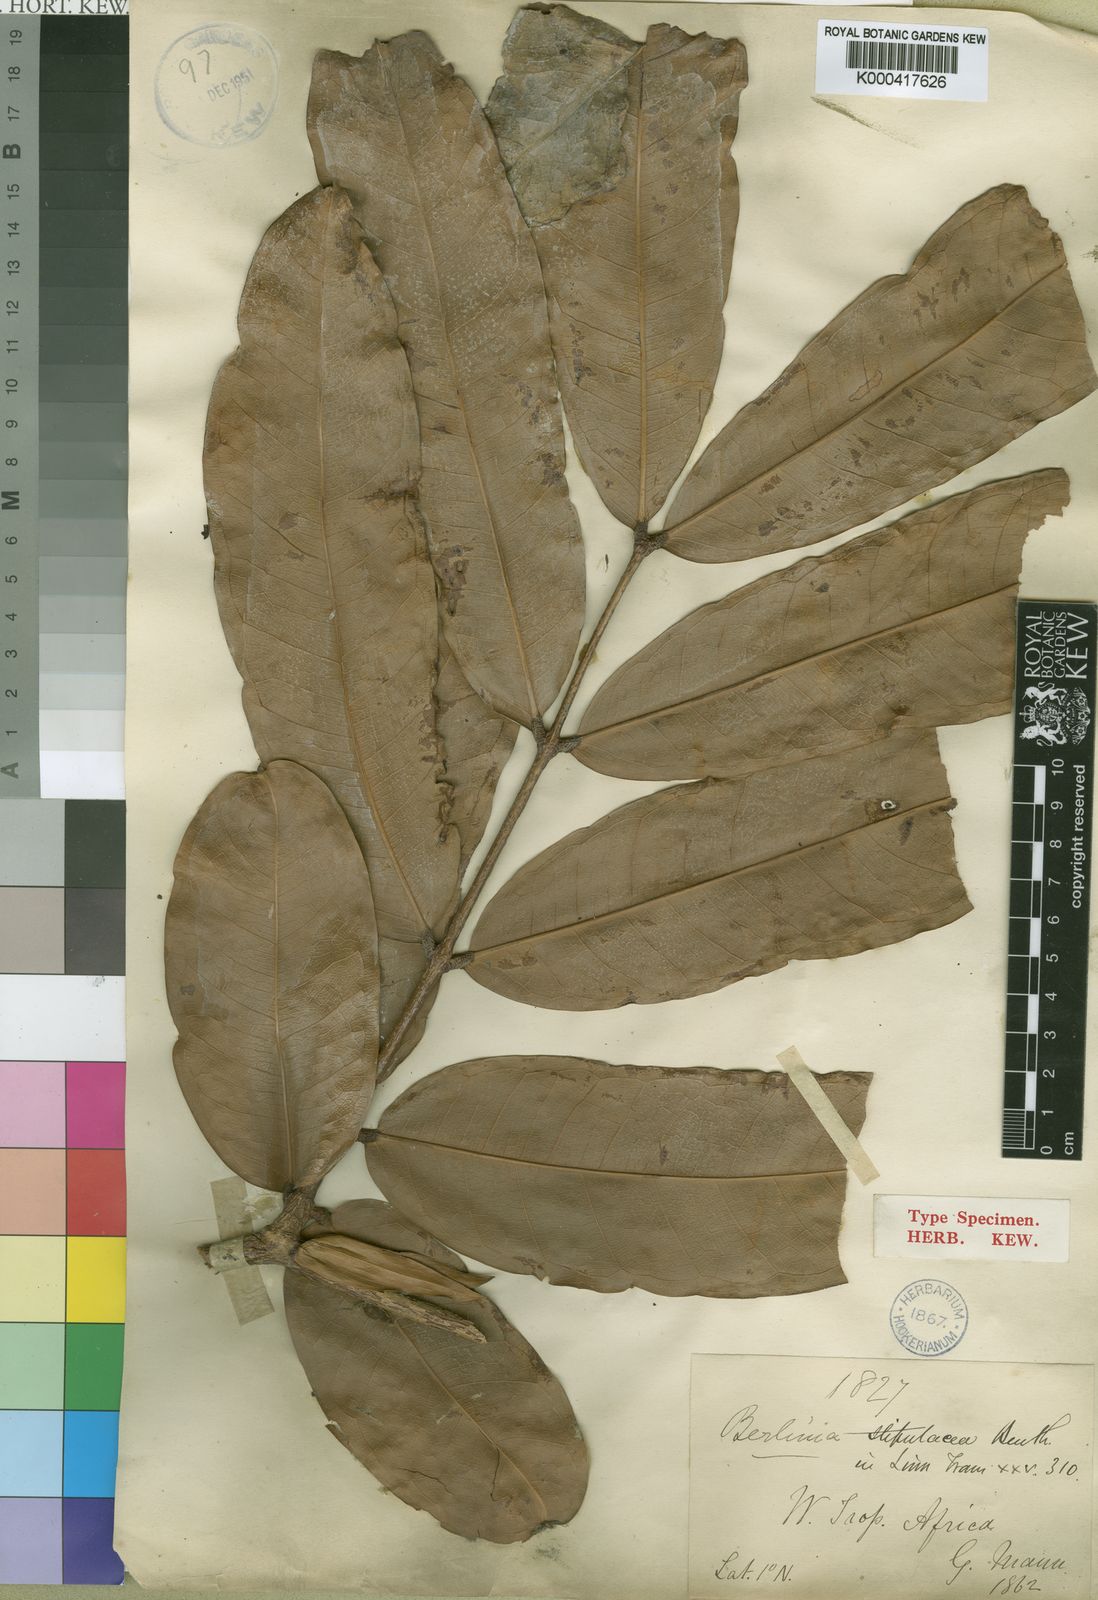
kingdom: Plantae
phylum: Tracheophyta
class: Magnoliopsida
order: Fabales
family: Fabaceae
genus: Gilbertiodendron
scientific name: Gilbertiodendron
